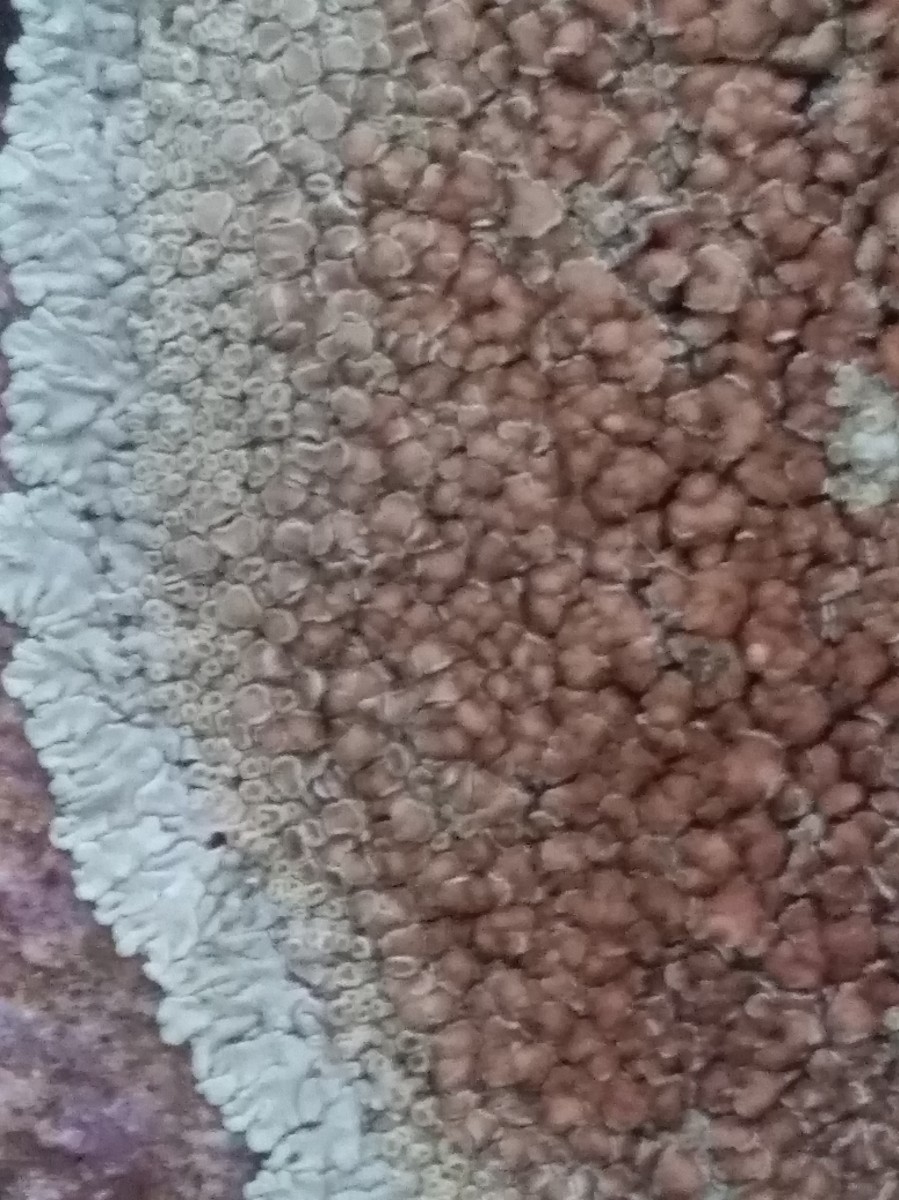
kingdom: Fungi
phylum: Ascomycota
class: Lecanoromycetes
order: Lecanorales
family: Lecanoraceae
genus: Protoparmeliopsis
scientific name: Protoparmeliopsis muralis
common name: randfliget kantskivelav
